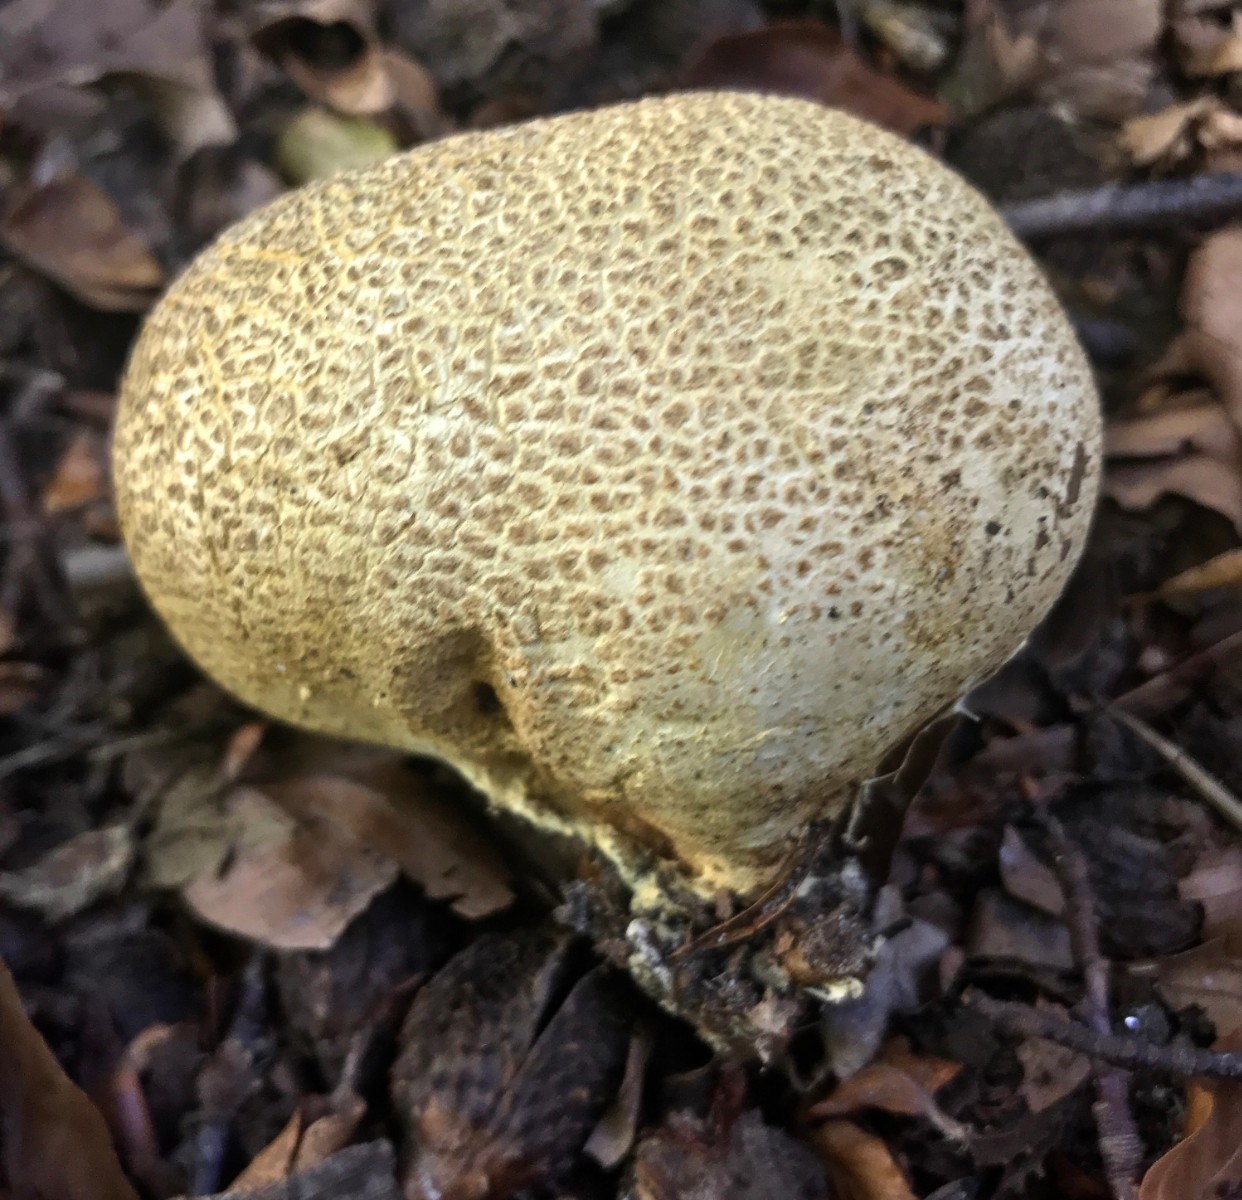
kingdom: Fungi
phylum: Basidiomycota
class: Agaricomycetes
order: Boletales
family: Sclerodermataceae
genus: Scleroderma
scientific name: Scleroderma citrinum
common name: almindelig bruskbold
